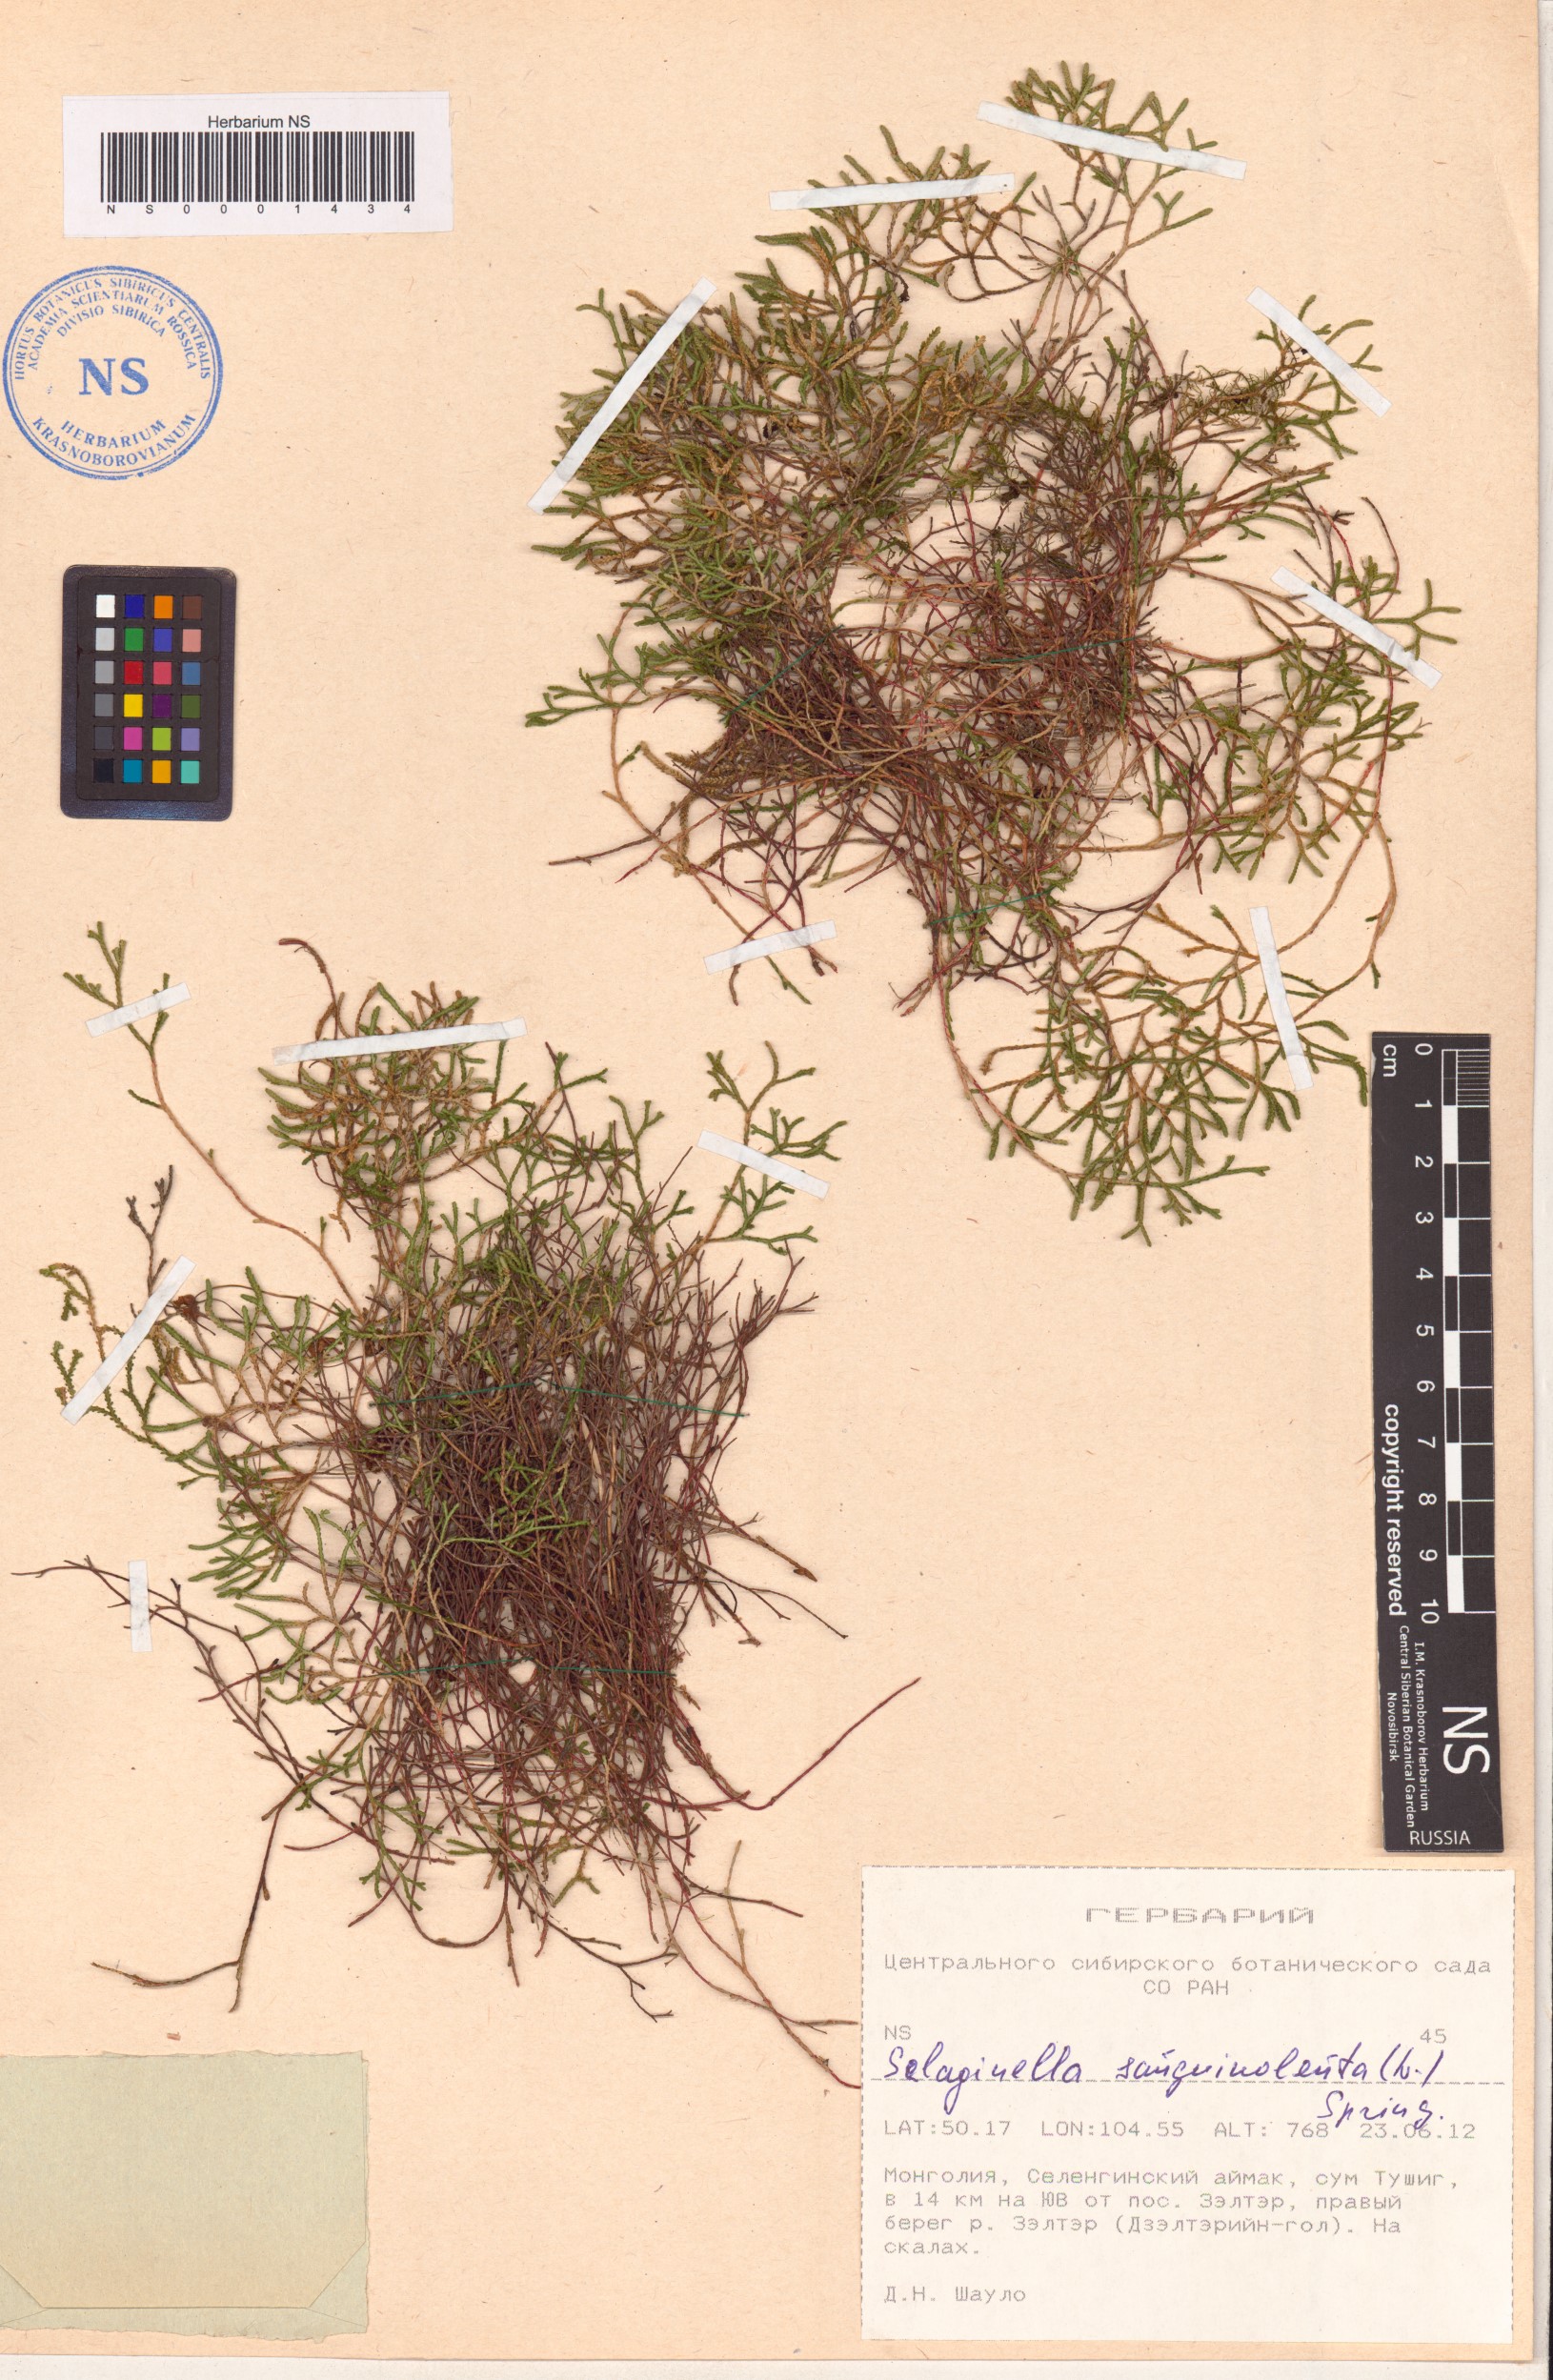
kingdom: Plantae
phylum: Tracheophyta
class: Lycopodiopsida
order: Selaginellales
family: Selaginellaceae
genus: Selaginella
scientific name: Selaginella sanguinolenta
